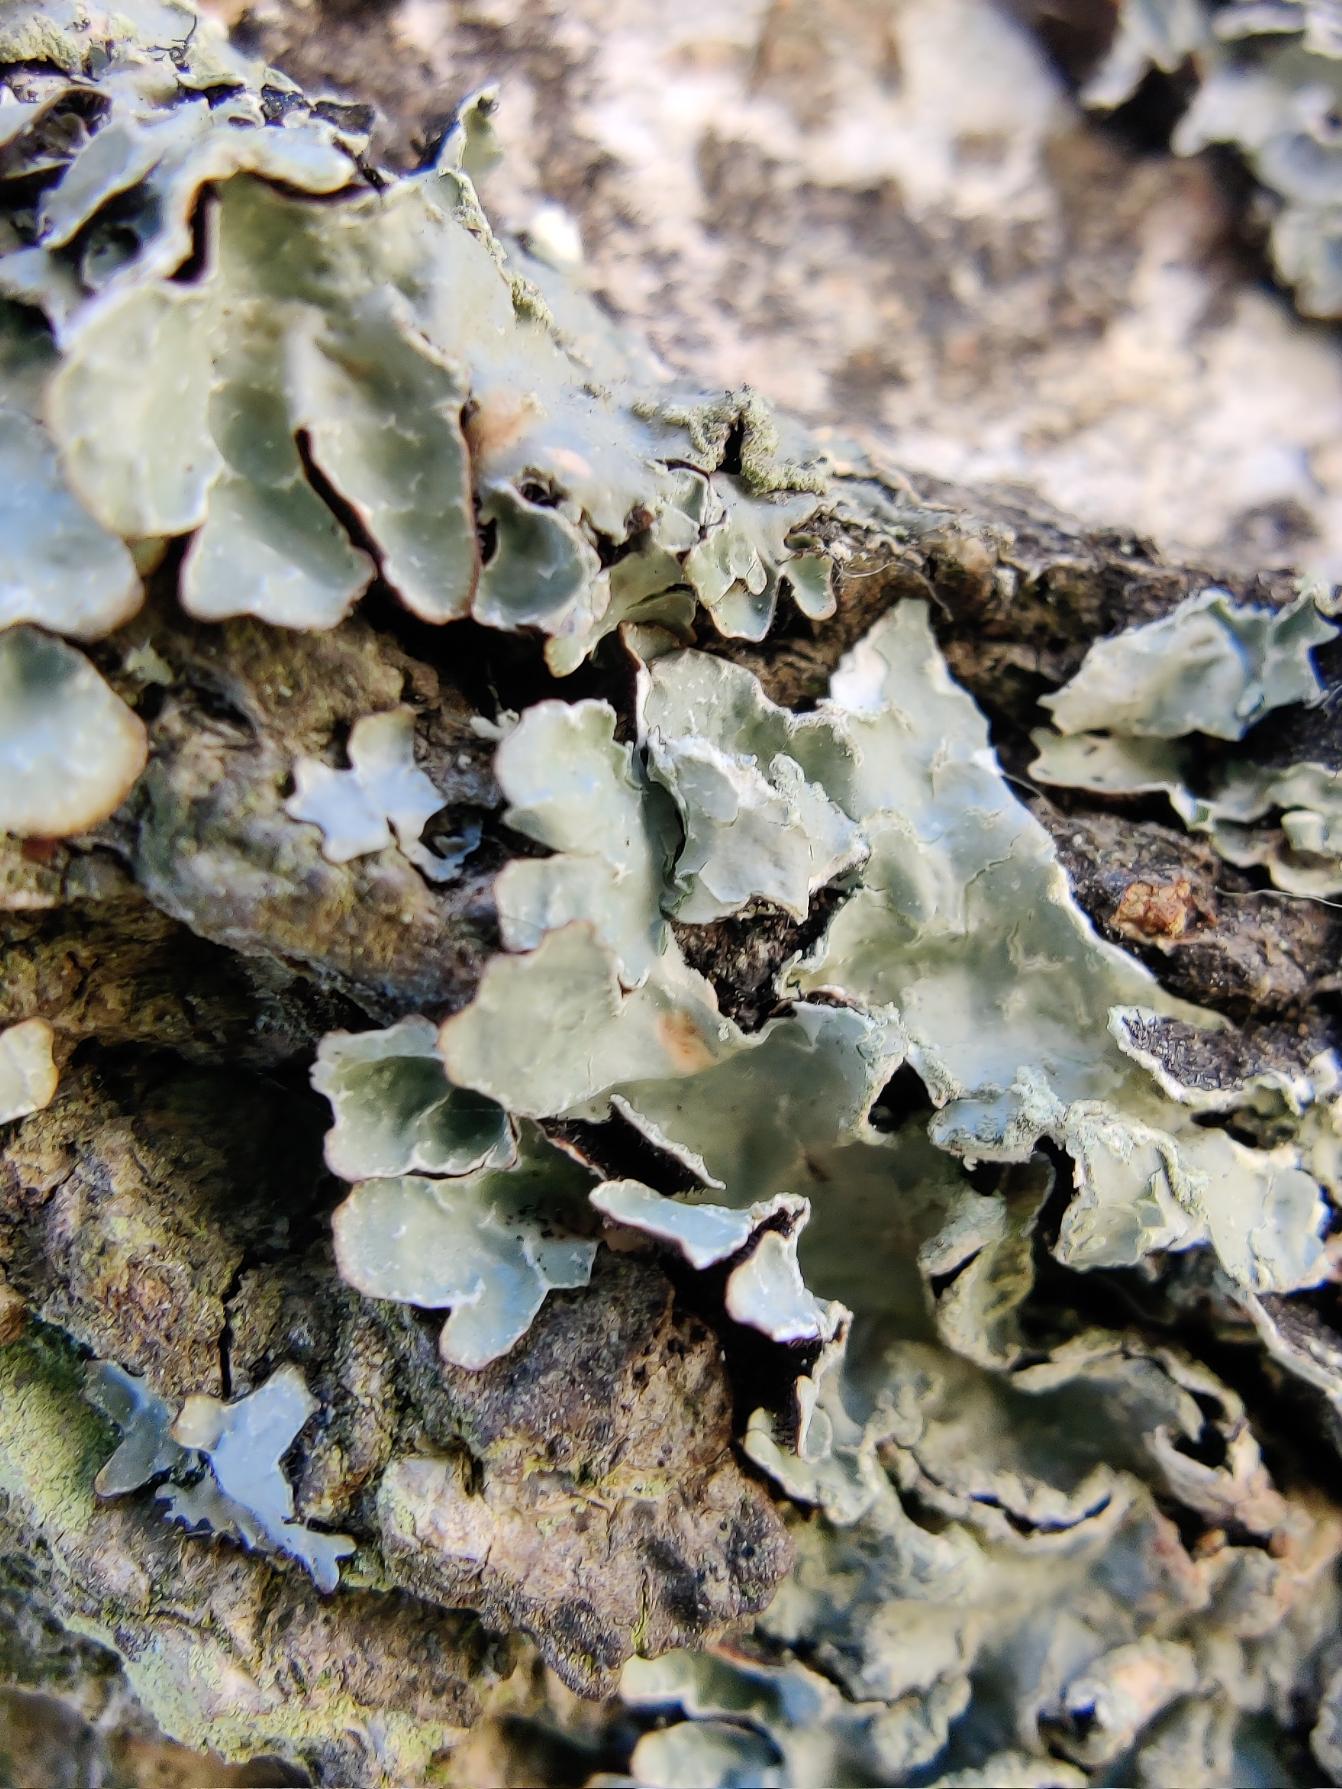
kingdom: Fungi
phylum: Ascomycota
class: Lecanoromycetes
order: Lecanorales
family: Parmeliaceae
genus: Parmelia
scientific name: Parmelia sulcata
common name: Rynket skållav
